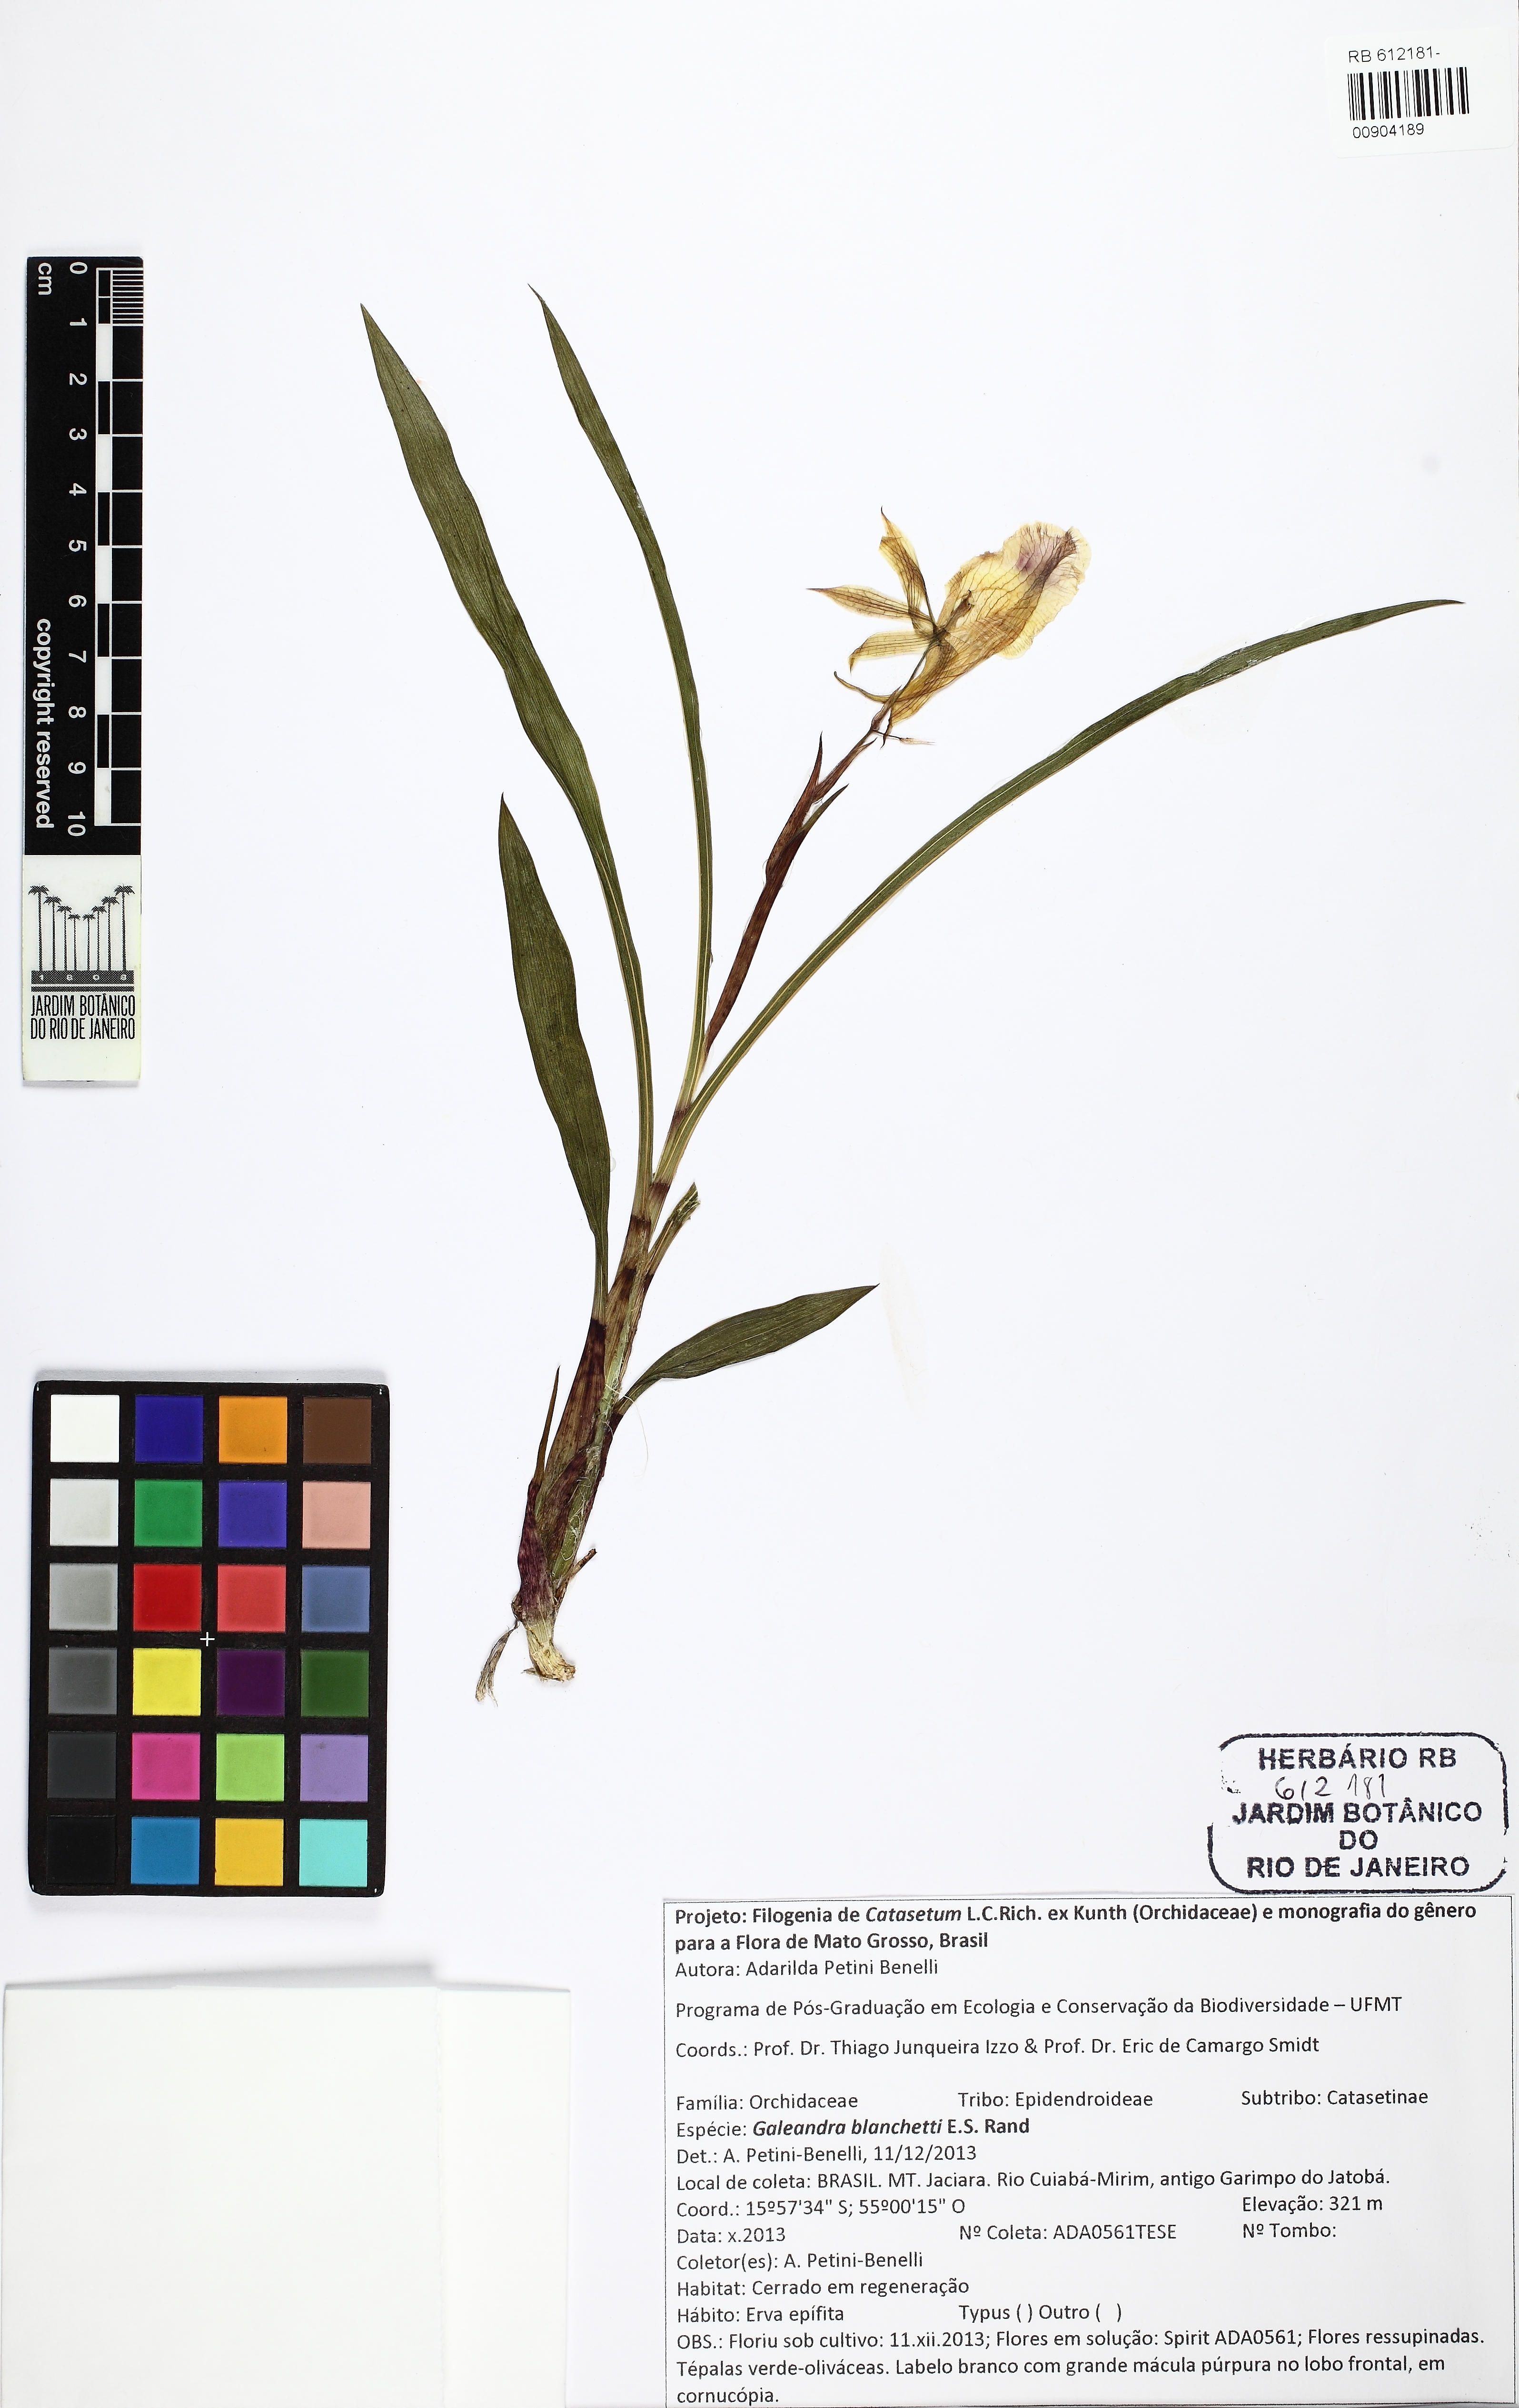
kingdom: Plantae
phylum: Tracheophyta
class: Liliopsida
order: Asparagales
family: Orchidaceae
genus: Galeandra
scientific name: Galeandra blanchetii
